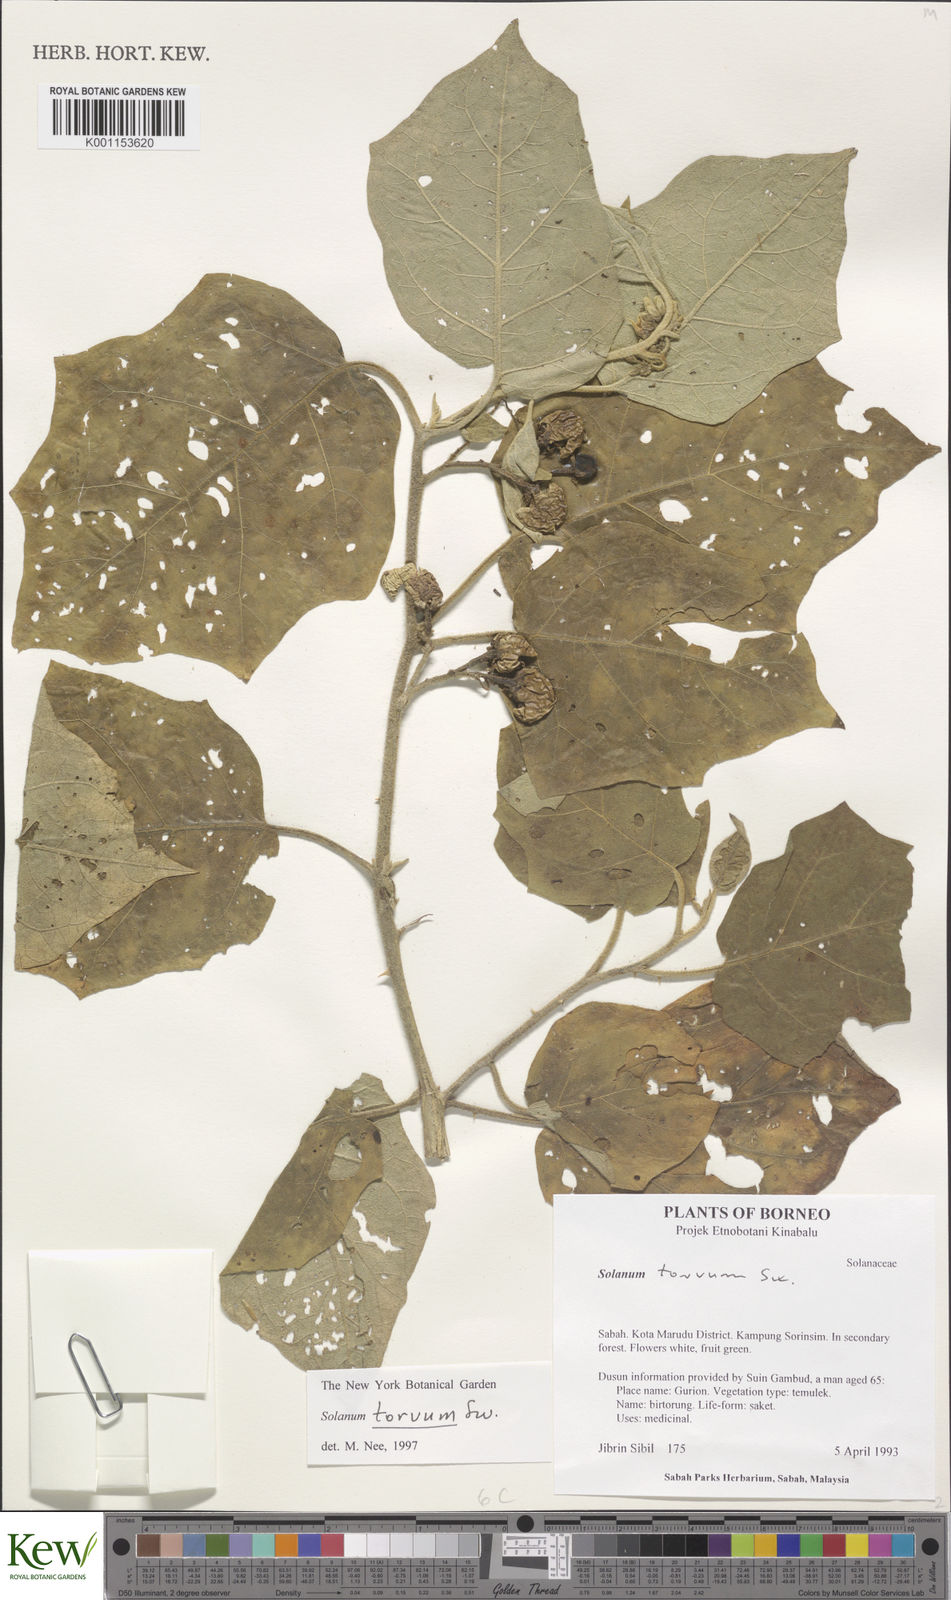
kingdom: Plantae
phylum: Tracheophyta
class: Magnoliopsida
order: Solanales
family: Solanaceae
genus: Solanum
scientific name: Solanum torvum
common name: Turkey berry
